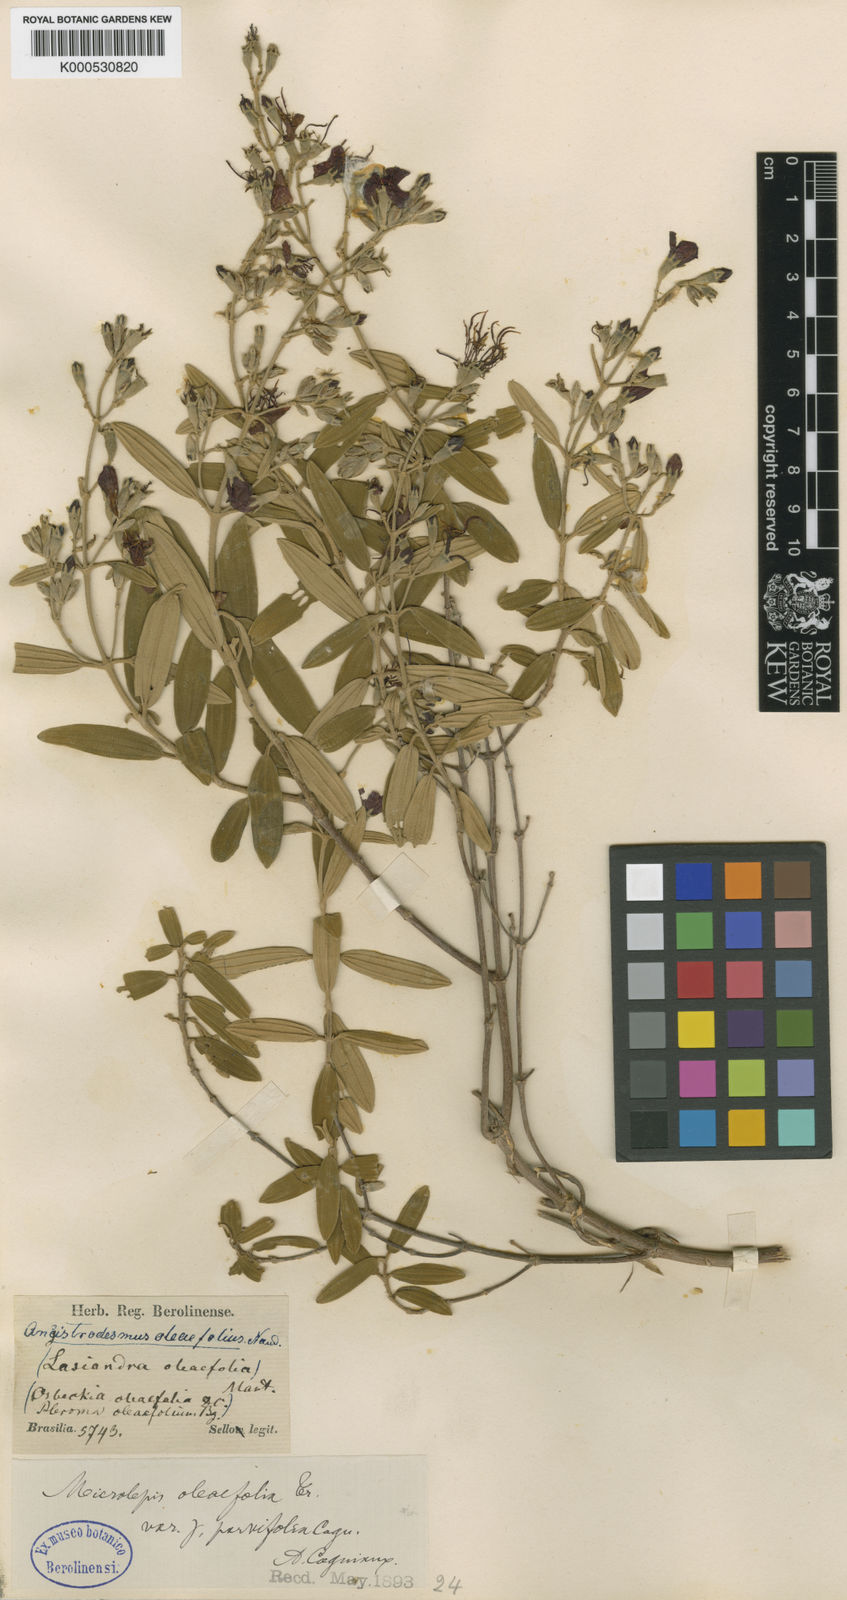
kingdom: Plantae
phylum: Tracheophyta
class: Magnoliopsida
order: Myrtales
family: Melastomataceae
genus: Pleroma
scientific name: Pleroma oleifolia
